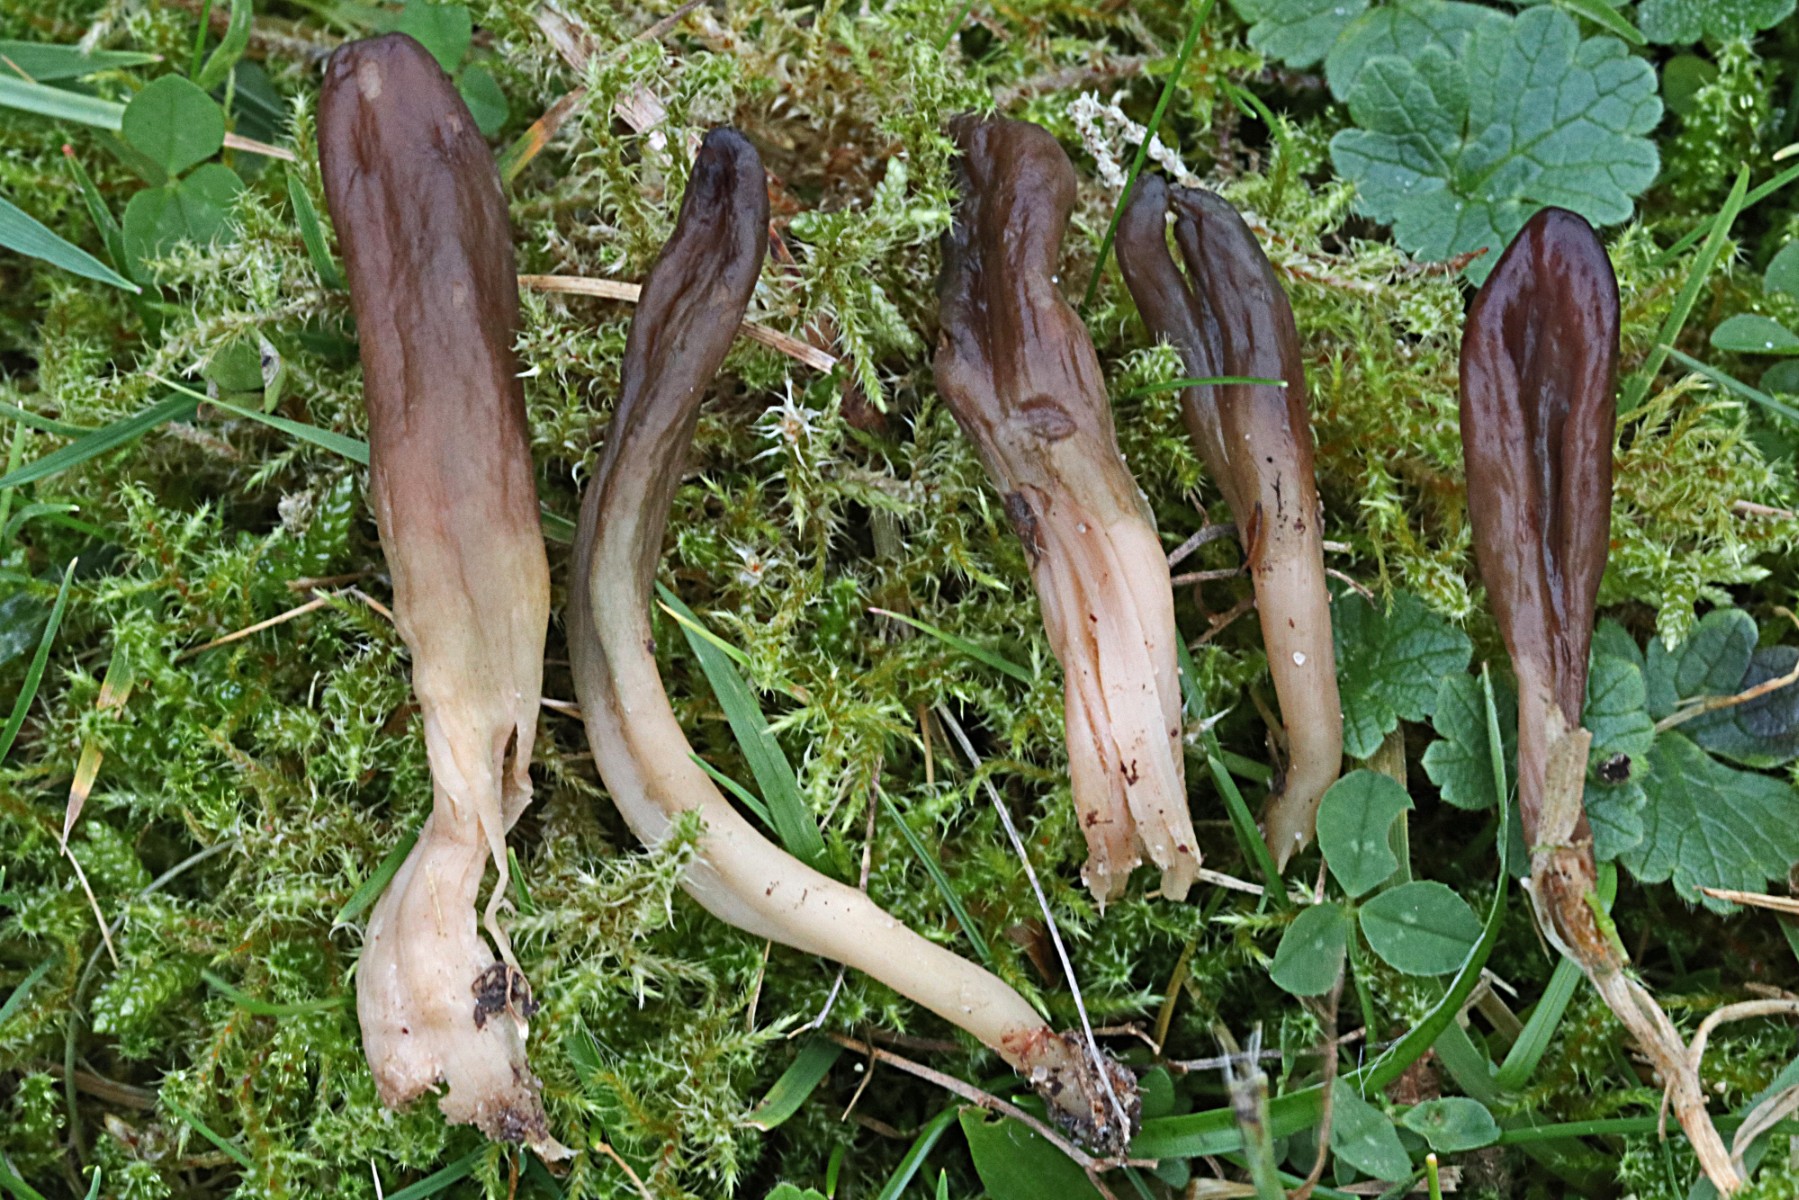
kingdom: Fungi
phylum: Ascomycota
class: Leotiomycetes
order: Leotiales
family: Leotiaceae
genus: Microglossum
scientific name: Microglossum olivaceum
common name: olivenbrun farvetunge
